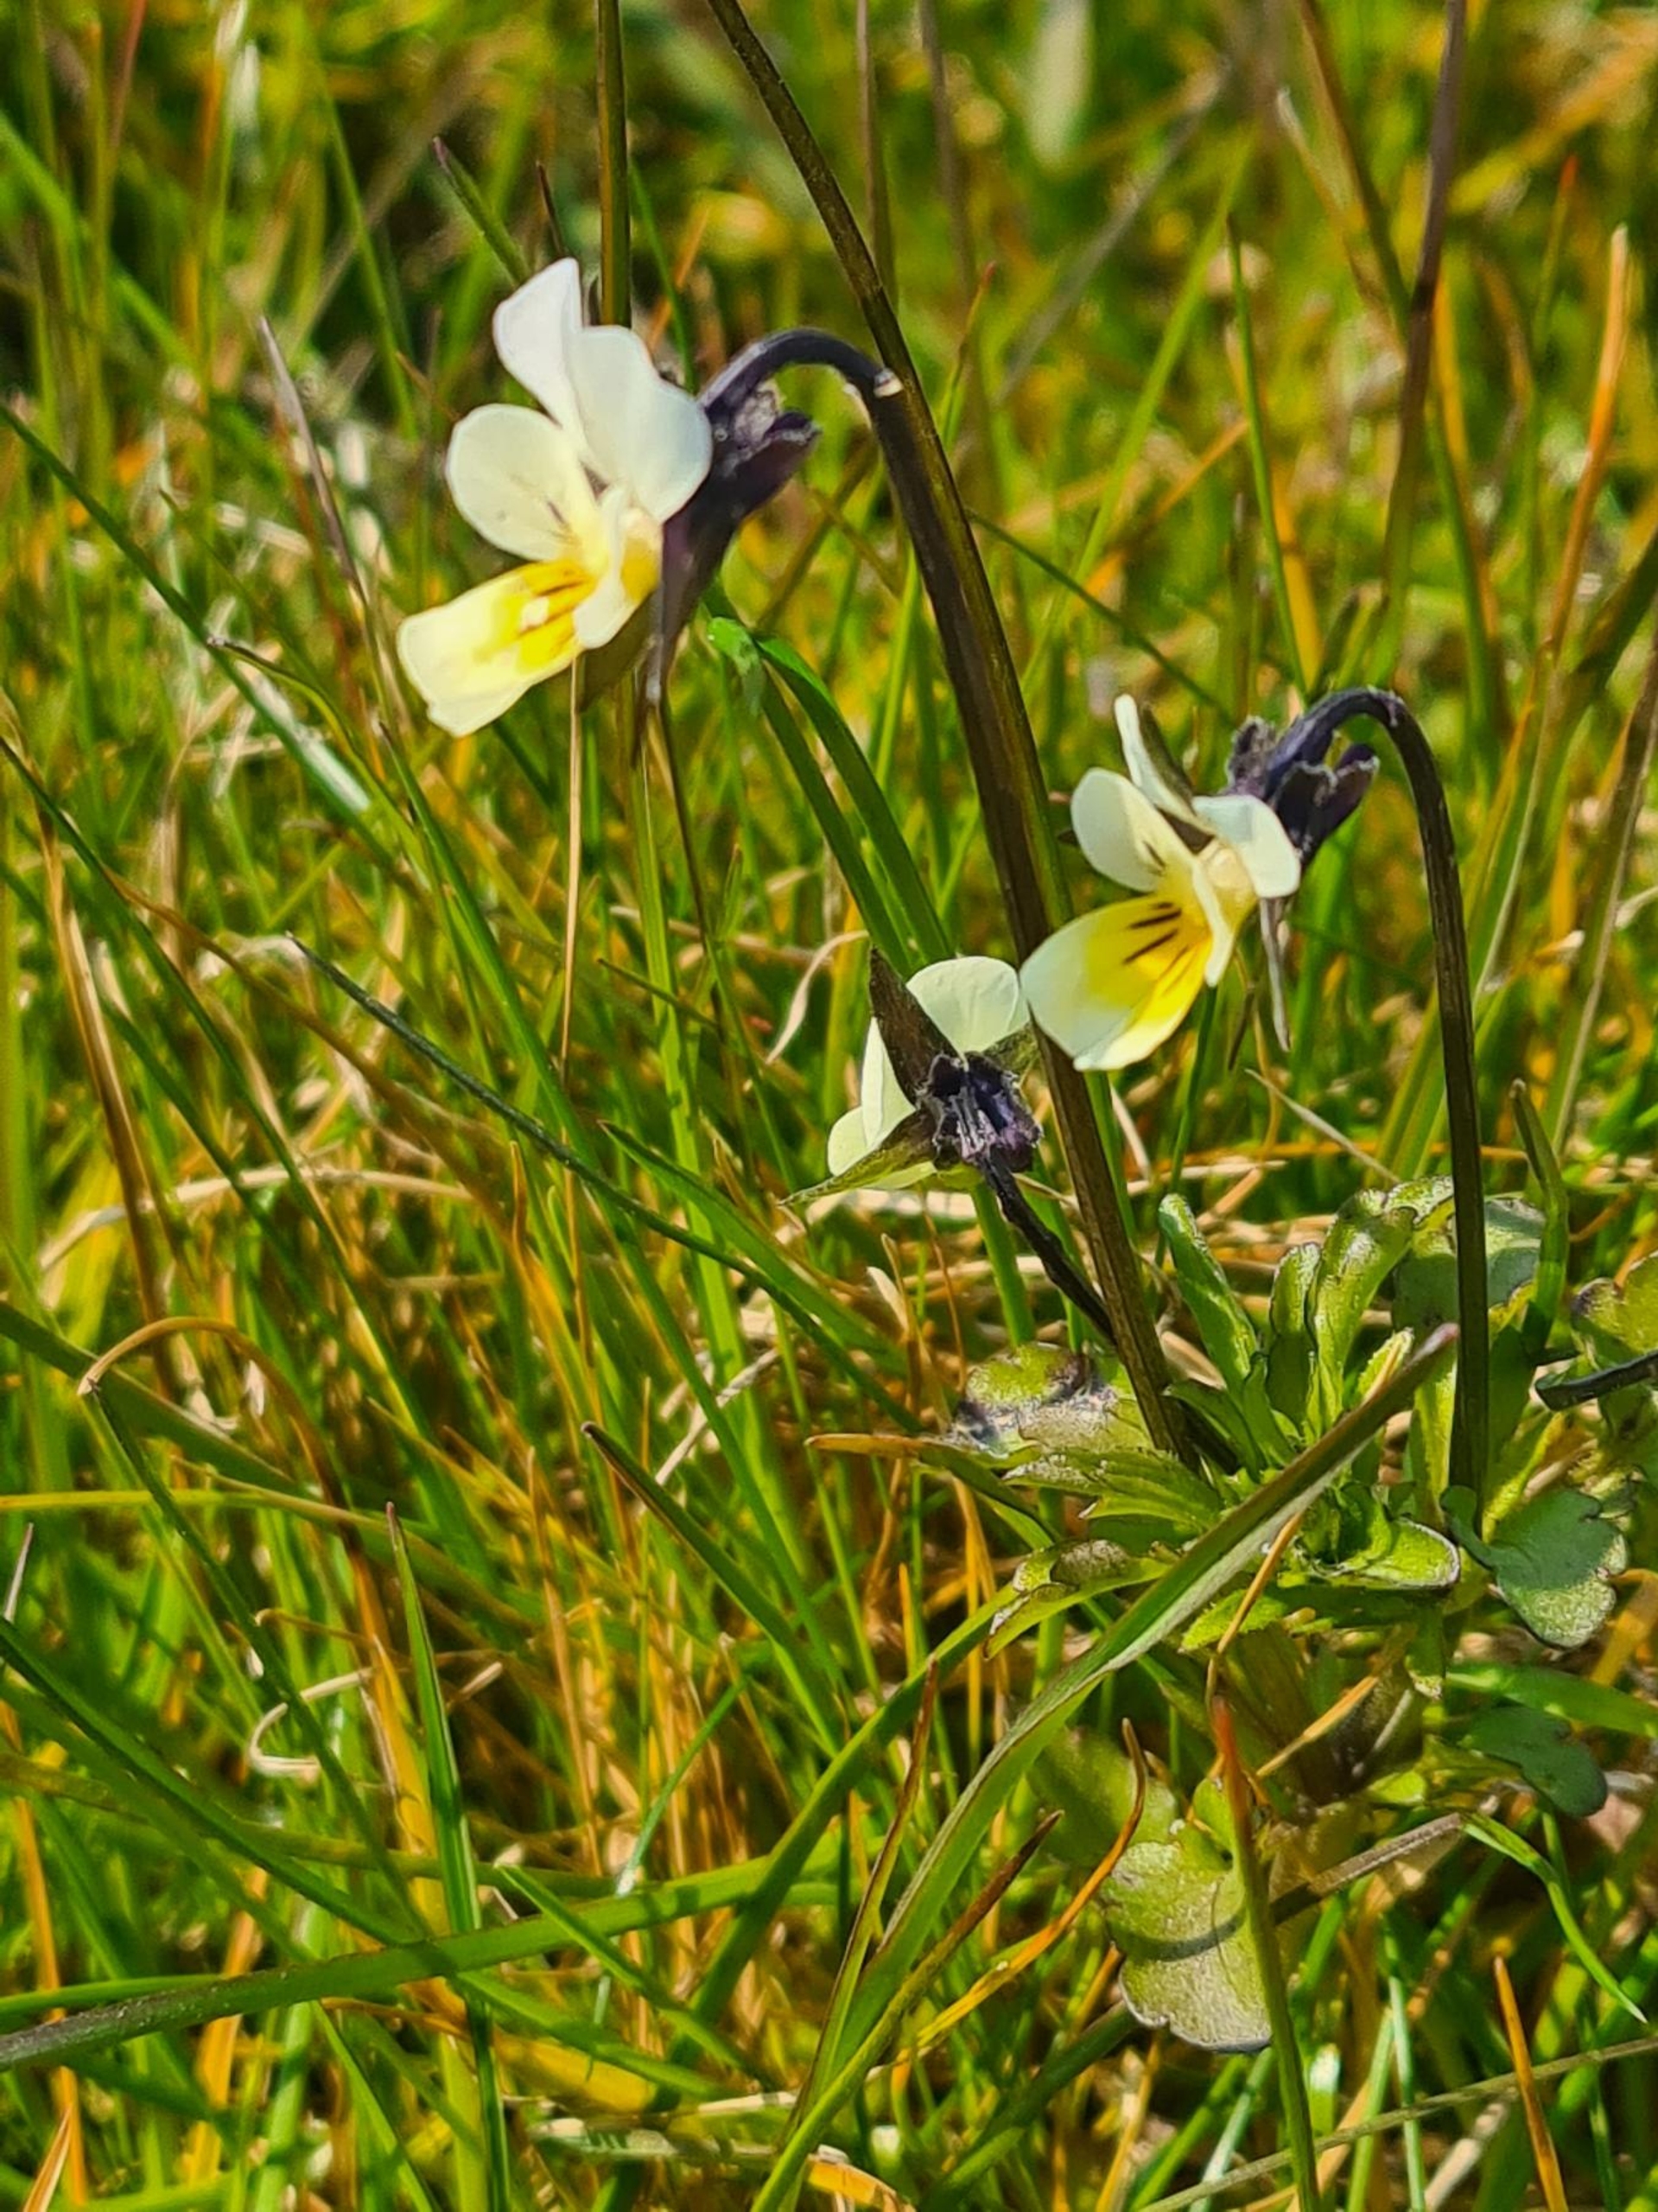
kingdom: Plantae
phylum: Tracheophyta
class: Magnoliopsida
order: Malpighiales
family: Violaceae
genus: Viola
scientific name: Viola
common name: Ager-stedmoderblomst × almindelig stedmoderblomst
